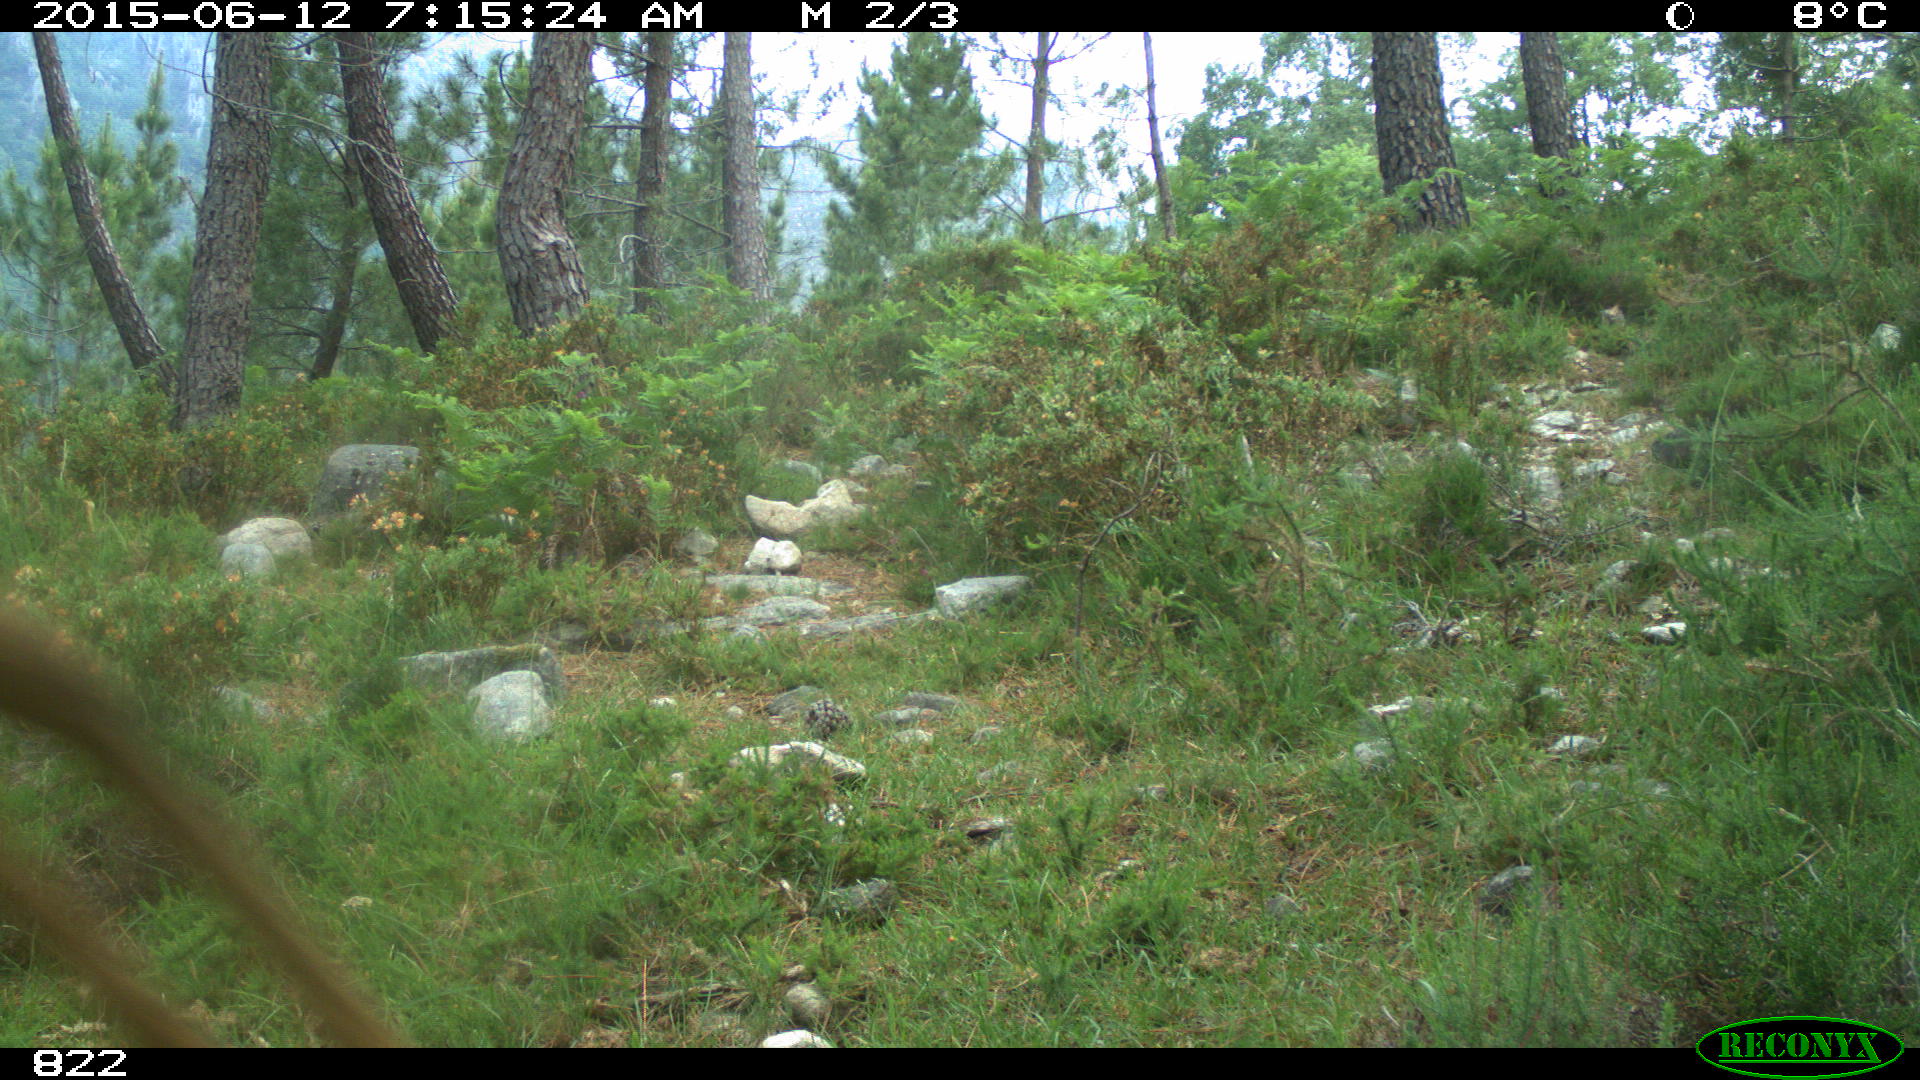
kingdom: Animalia
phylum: Chordata
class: Mammalia
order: Artiodactyla
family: Cervidae
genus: Capreolus
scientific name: Capreolus capreolus
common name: Western roe deer
